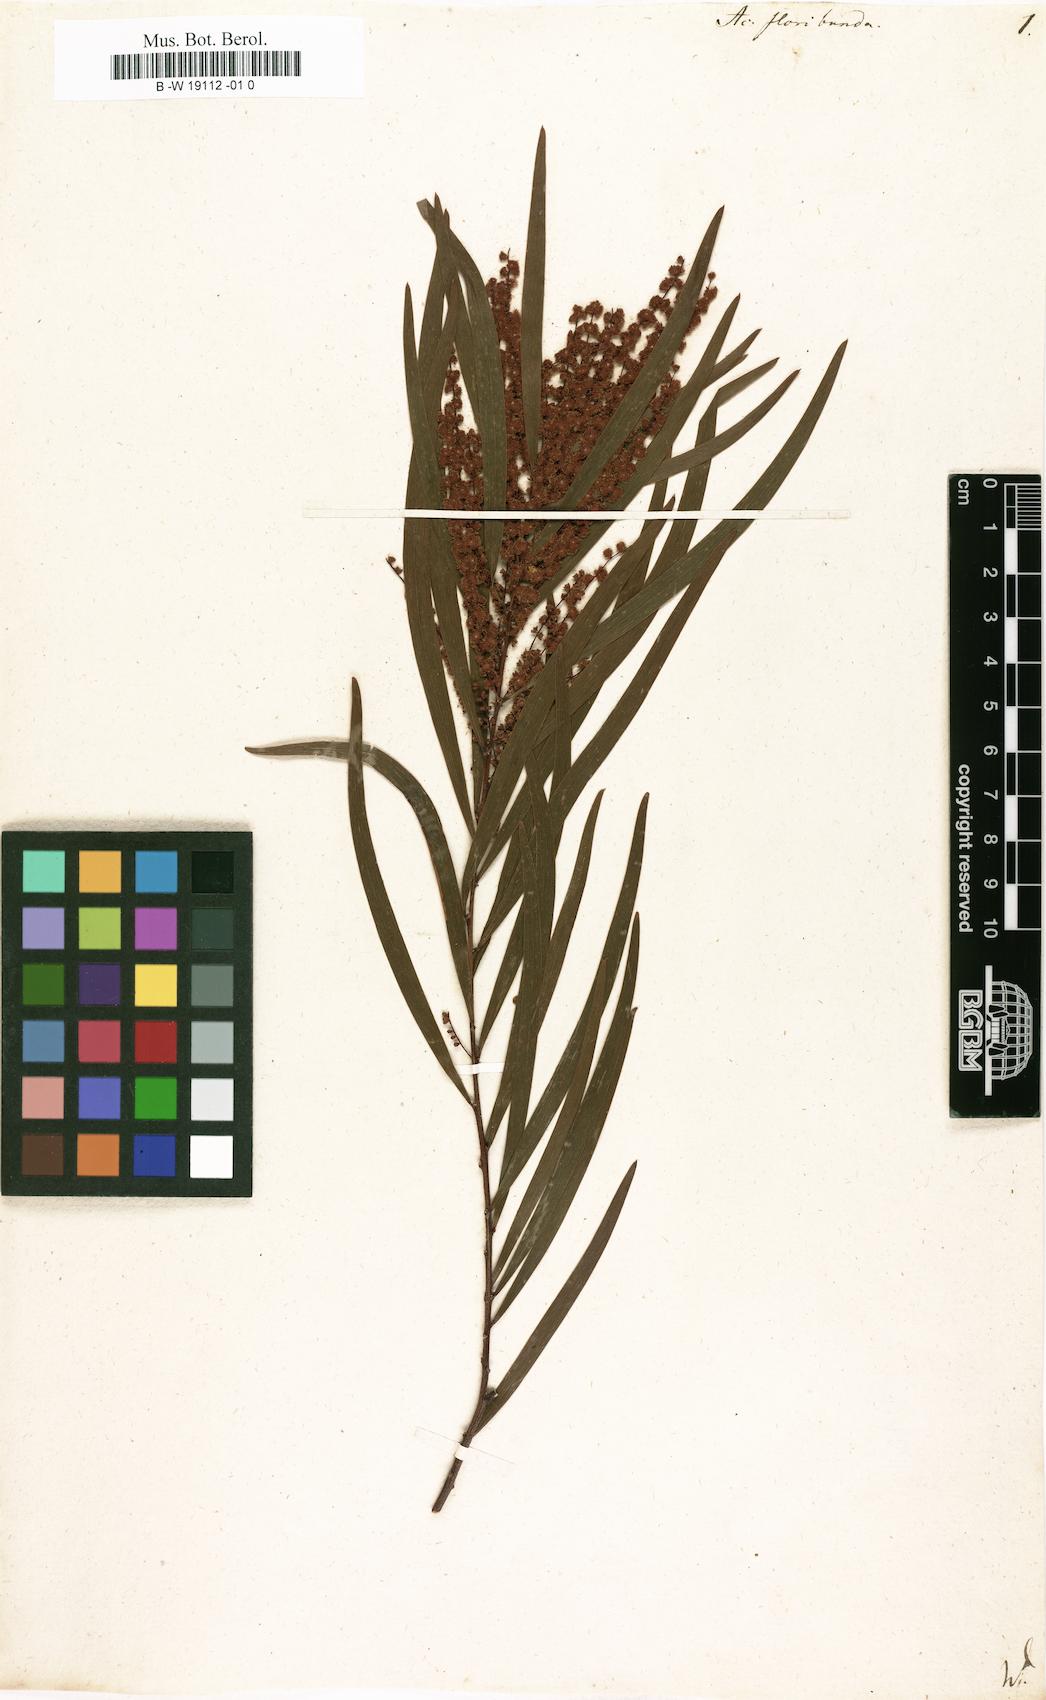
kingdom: Plantae
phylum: Tracheophyta
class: Magnoliopsida
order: Fabales
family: Fabaceae
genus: Acacia
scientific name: Acacia floribunda
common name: Gossamer wattle
